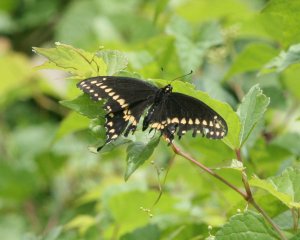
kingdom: Animalia
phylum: Arthropoda
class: Insecta
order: Lepidoptera
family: Papilionidae
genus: Papilio
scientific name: Papilio polyxenes
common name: Black Swallowtail
